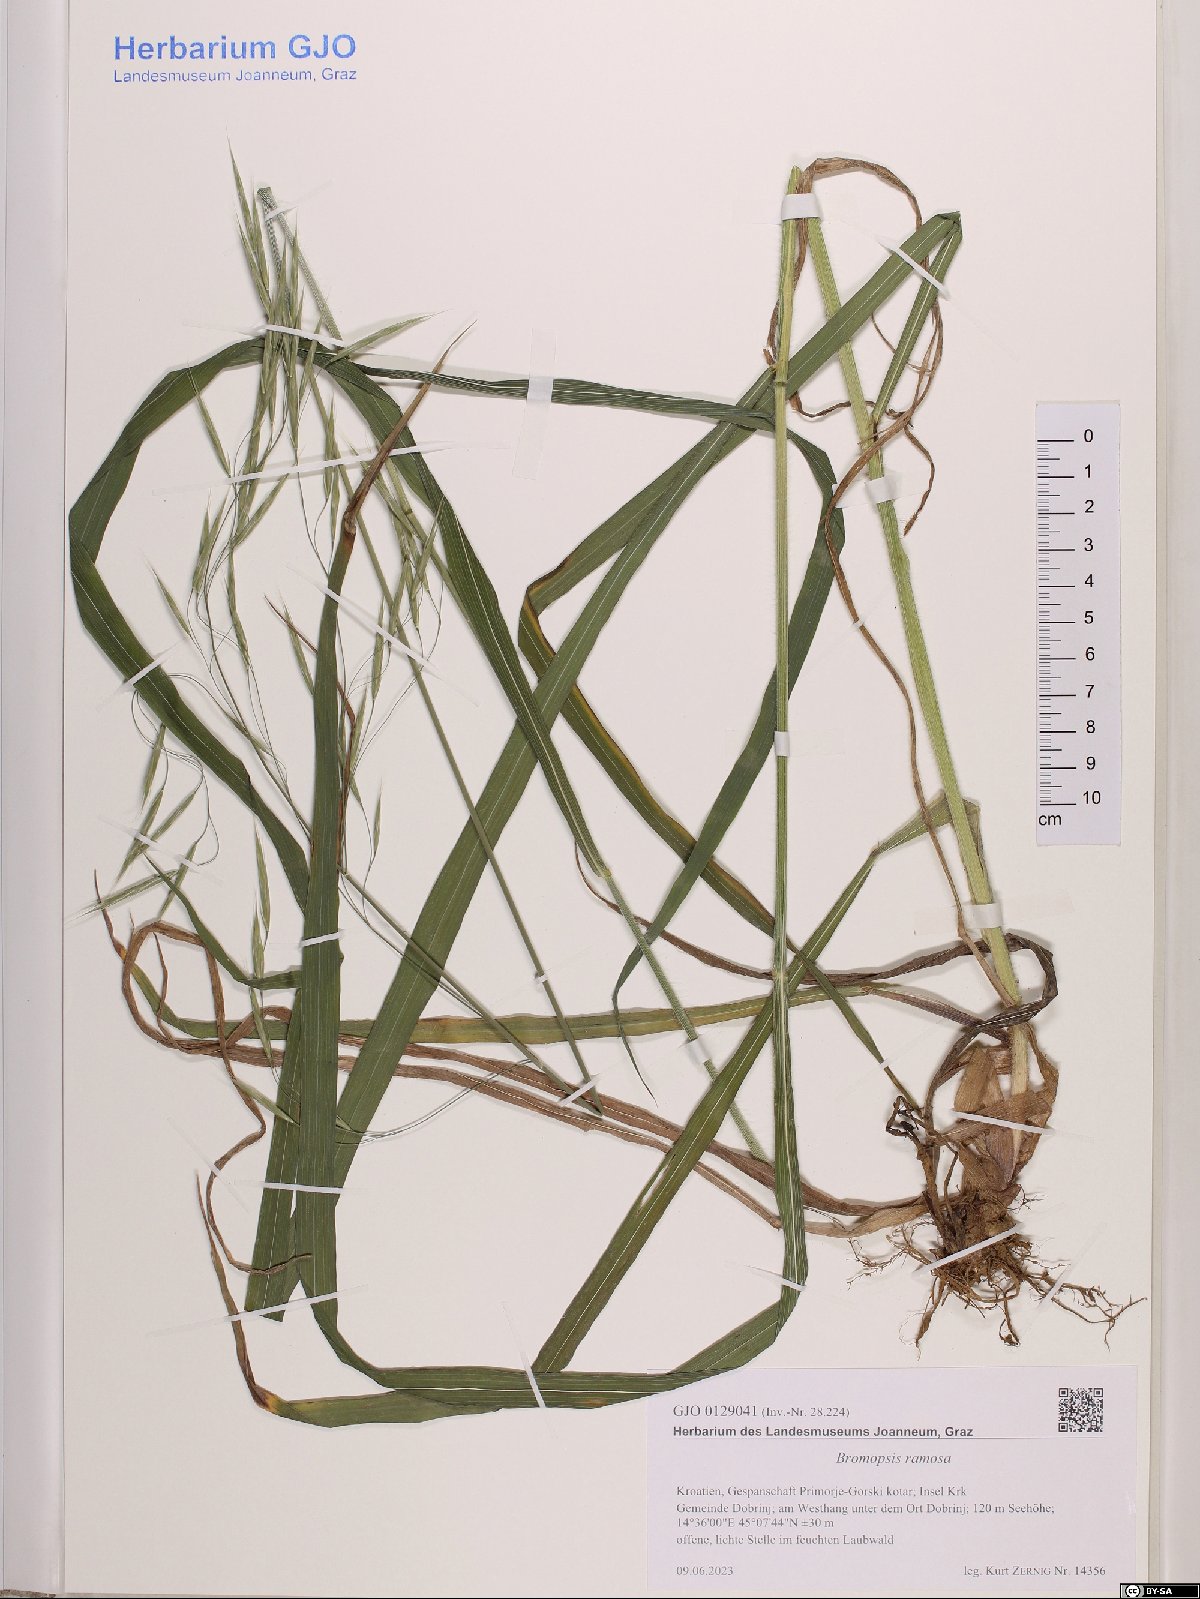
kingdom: Plantae
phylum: Tracheophyta
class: Liliopsida
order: Poales
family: Poaceae
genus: Bromus
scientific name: Bromus ramosus
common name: Hairy brome
